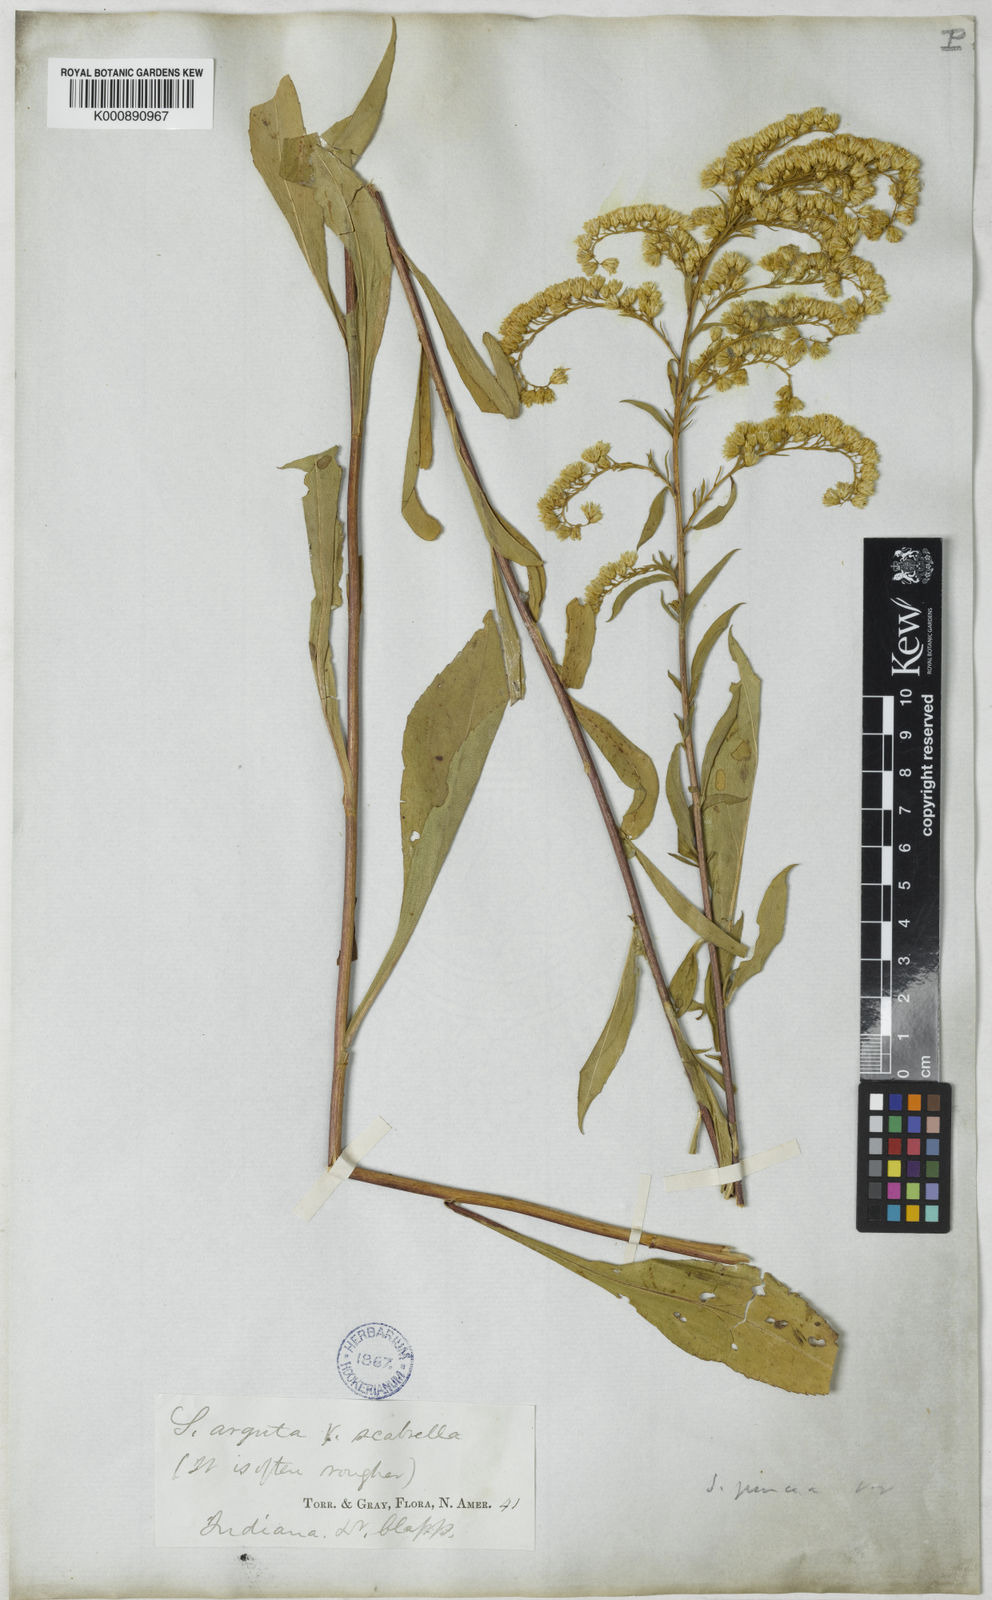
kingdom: Plantae
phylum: Tracheophyta
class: Magnoliopsida
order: Asterales
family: Asteraceae
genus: Solidago
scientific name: Solidago juncea
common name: Early goldenrod
